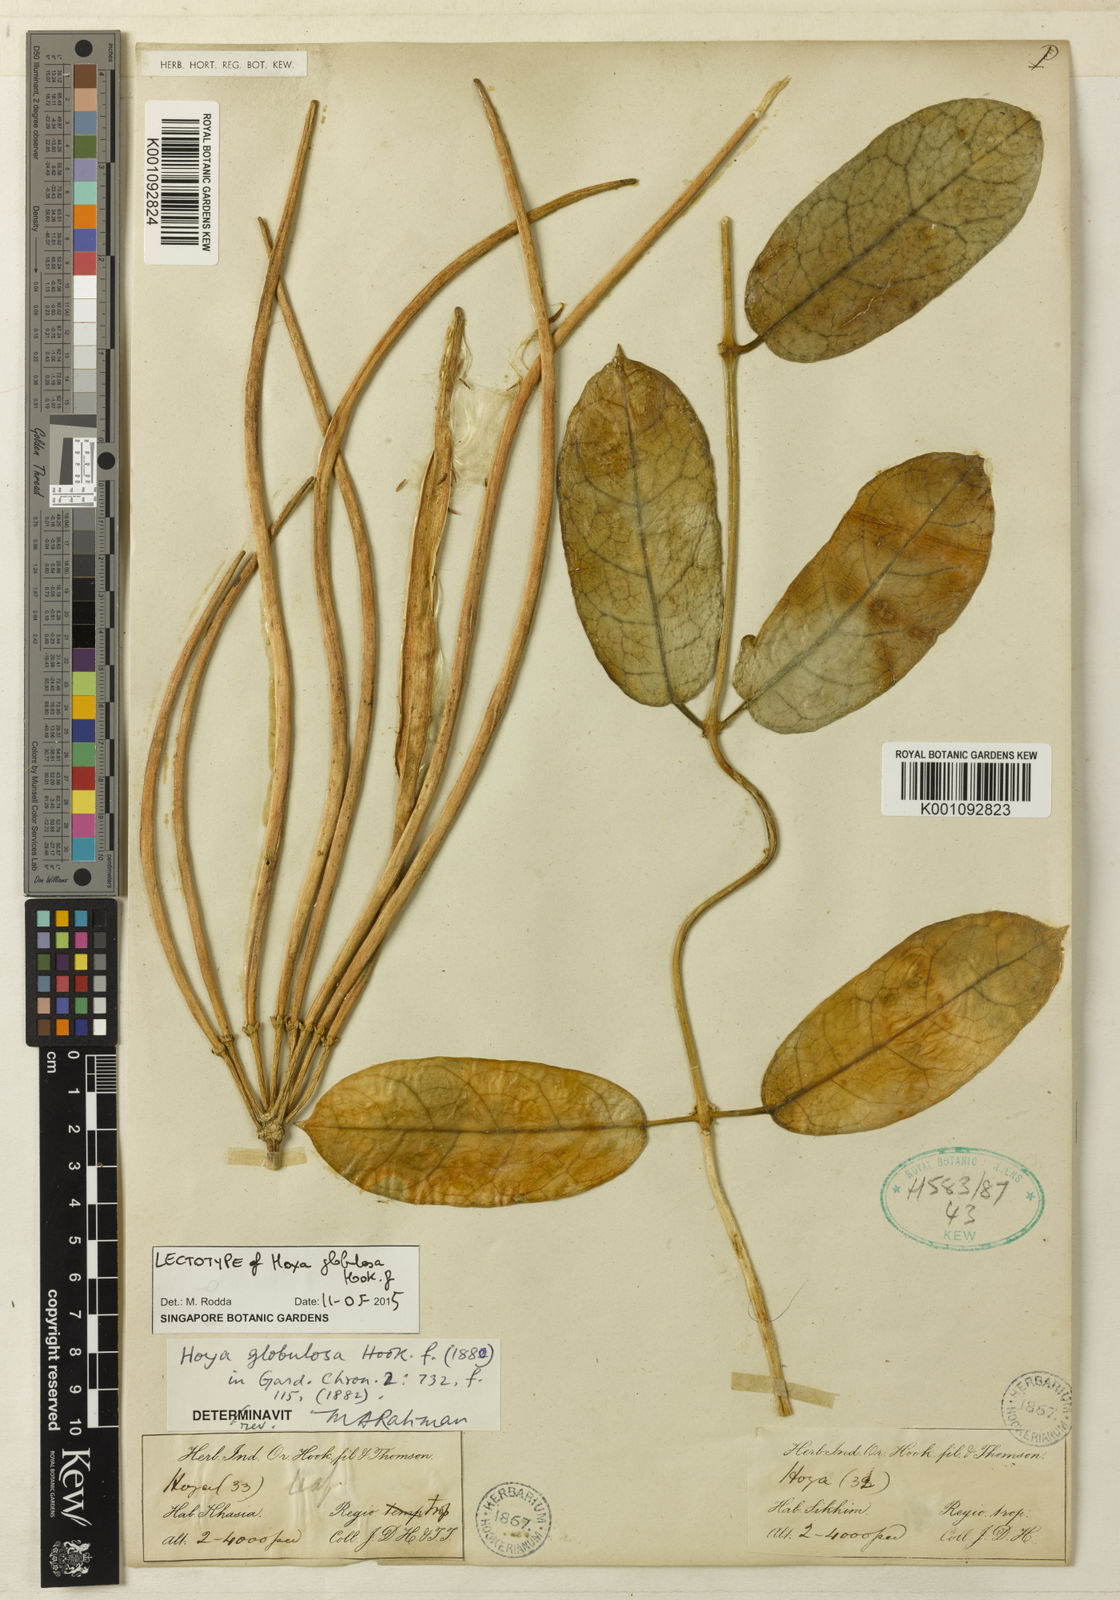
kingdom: Plantae
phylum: Tracheophyta
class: Magnoliopsida
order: Gentianales
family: Apocynaceae
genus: Hoya
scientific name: Hoya globulosa
